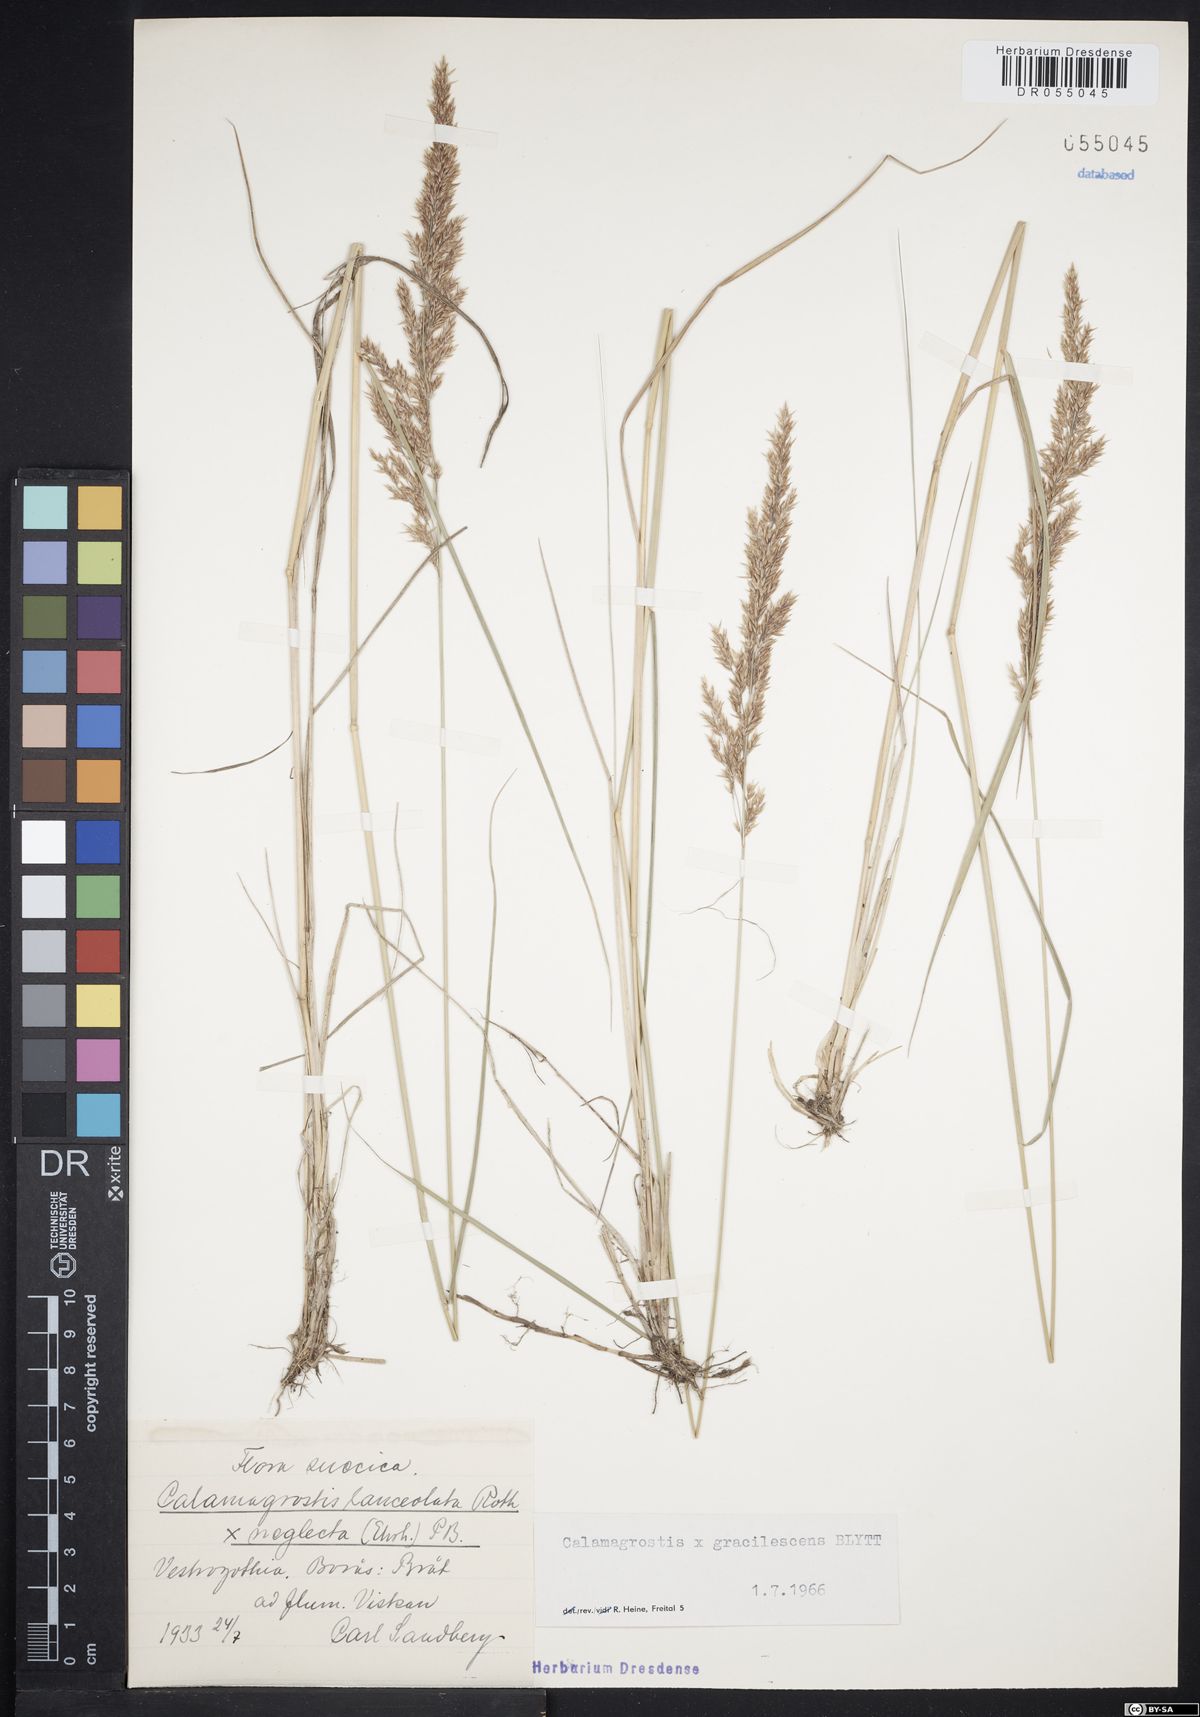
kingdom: Plantae
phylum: Tracheophyta
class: Liliopsida
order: Poales
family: Poaceae
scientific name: Poaceae
